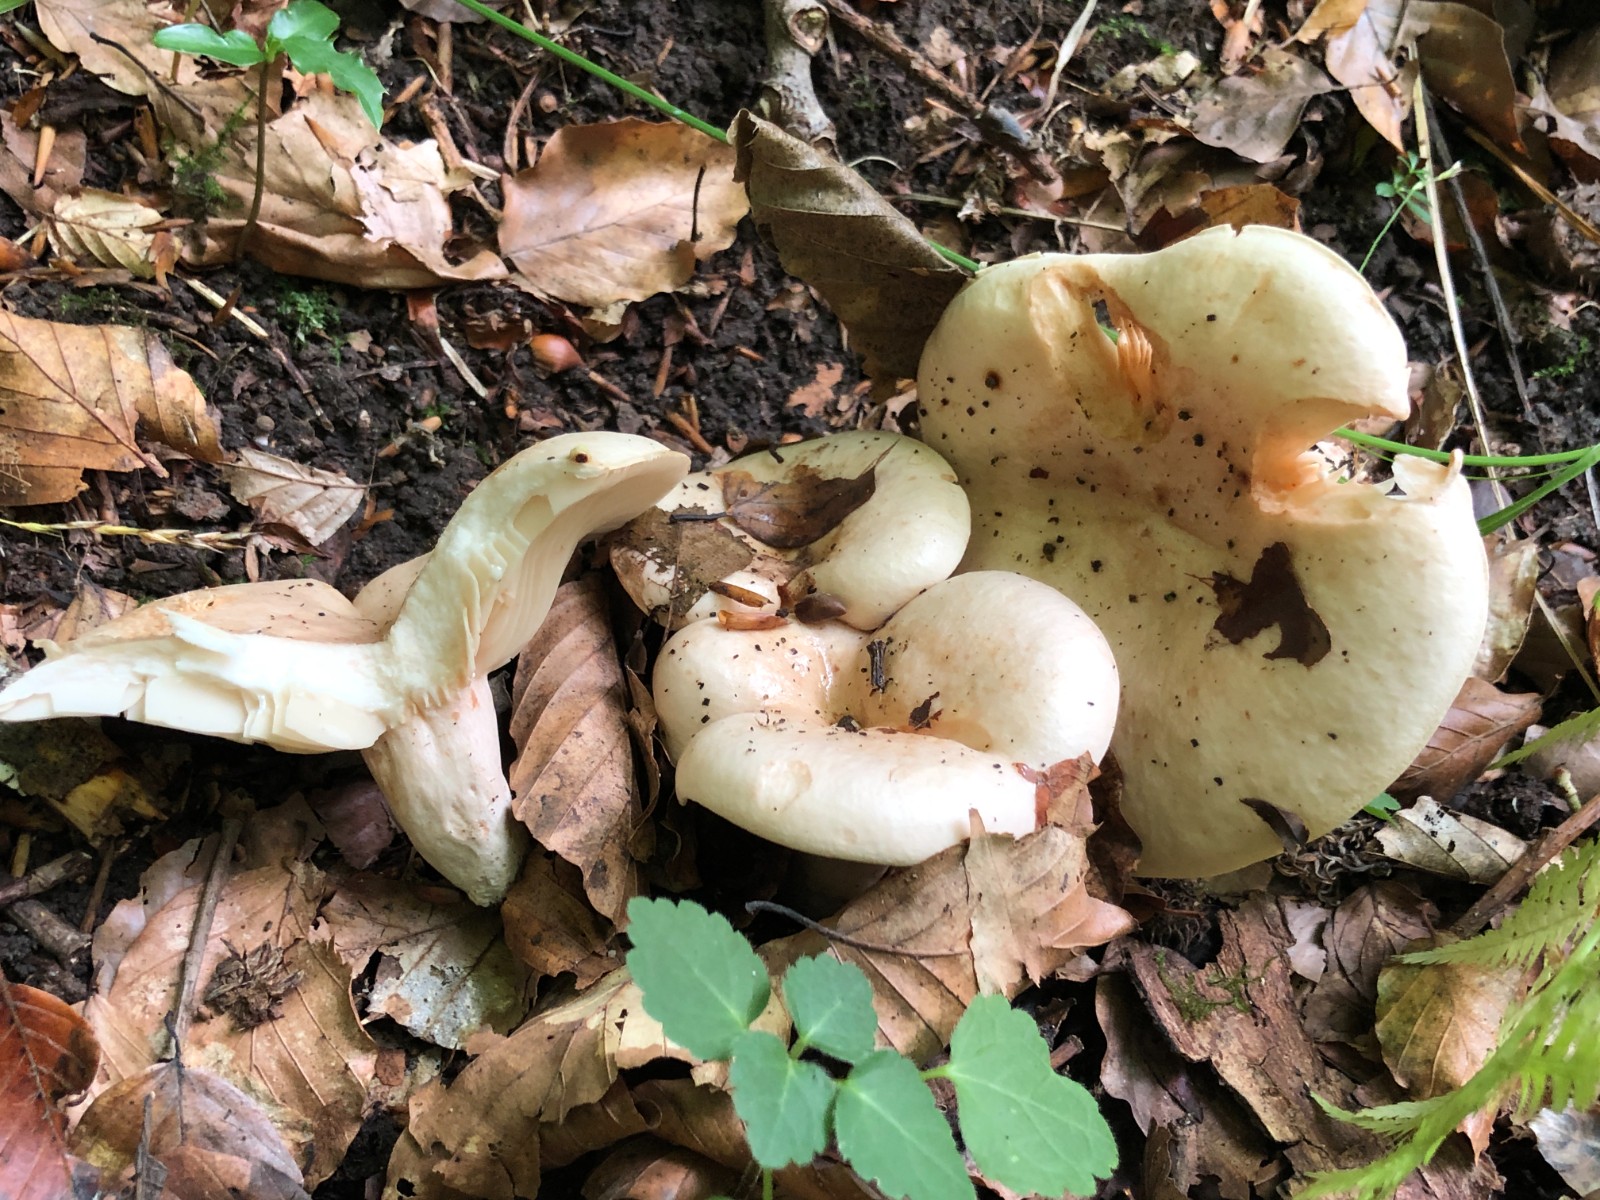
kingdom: Fungi
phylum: Basidiomycota
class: Agaricomycetes
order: Russulales
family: Russulaceae
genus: Lactarius
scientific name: Lactarius pallidus
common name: bleg mælkehat
